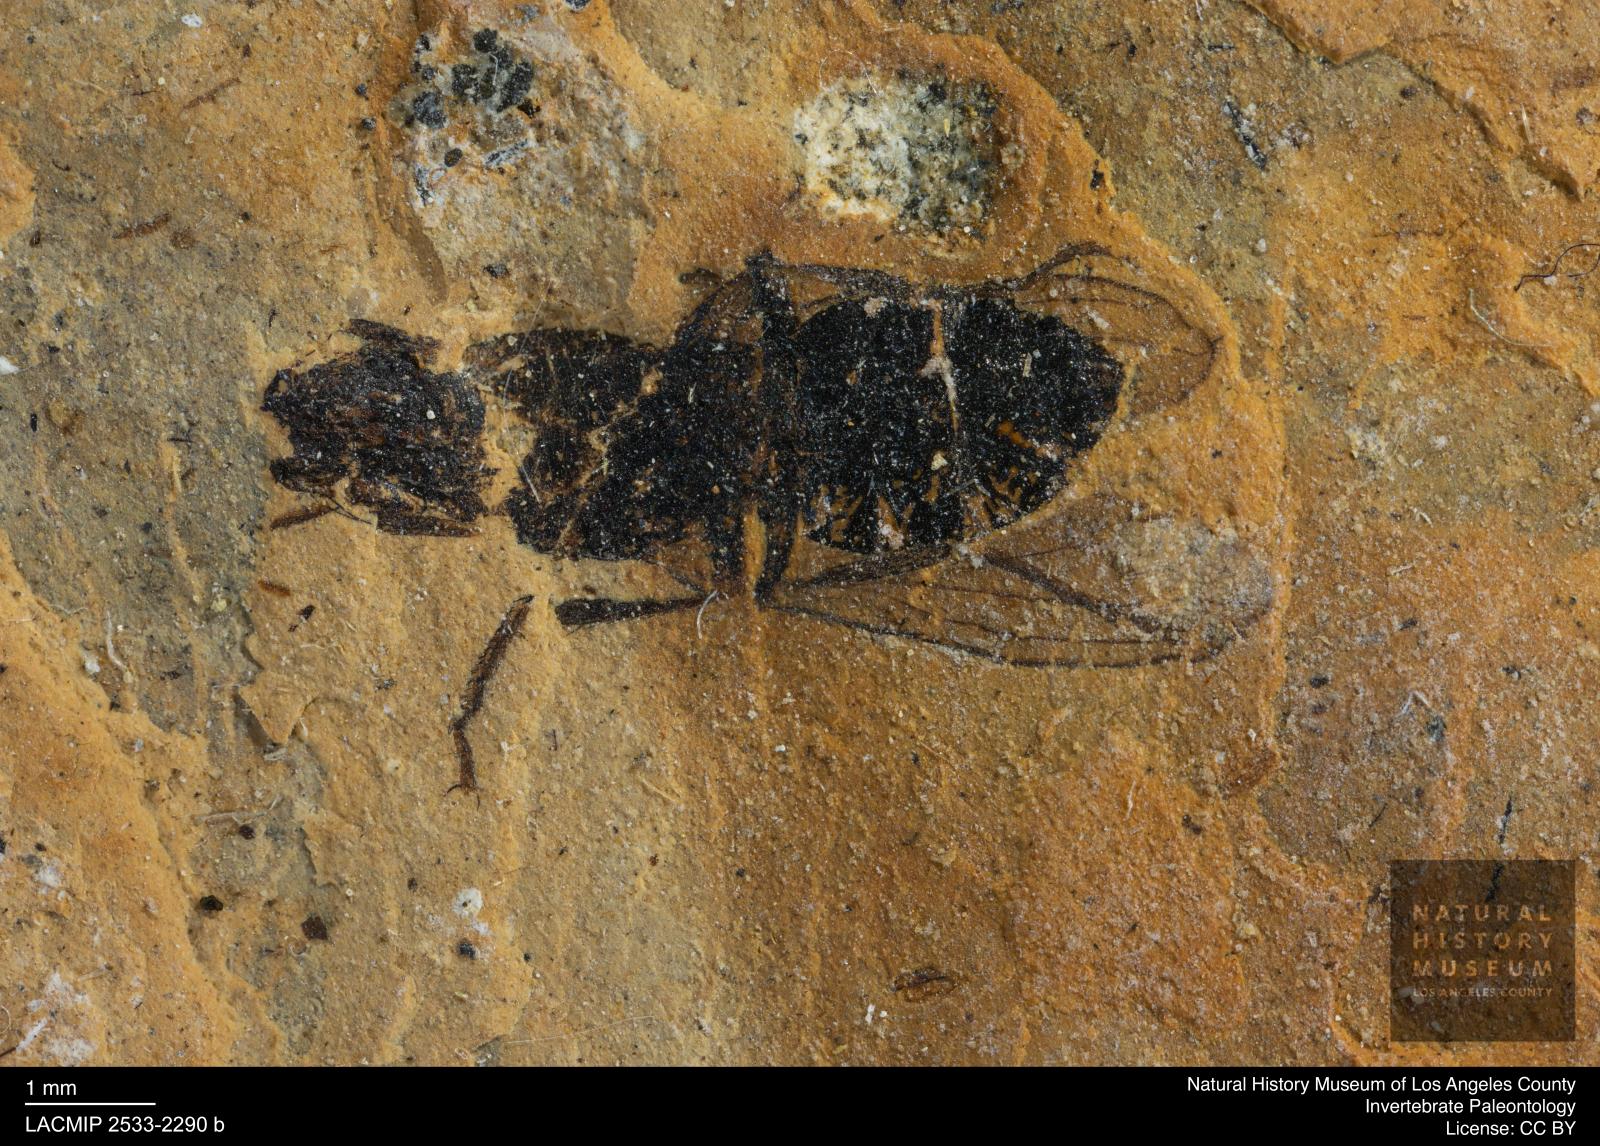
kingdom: Animalia
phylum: Arthropoda
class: Insecta
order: Diptera
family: Heleomyzidae
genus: Heleomyza
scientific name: Heleomyza Leria bauckhorni
